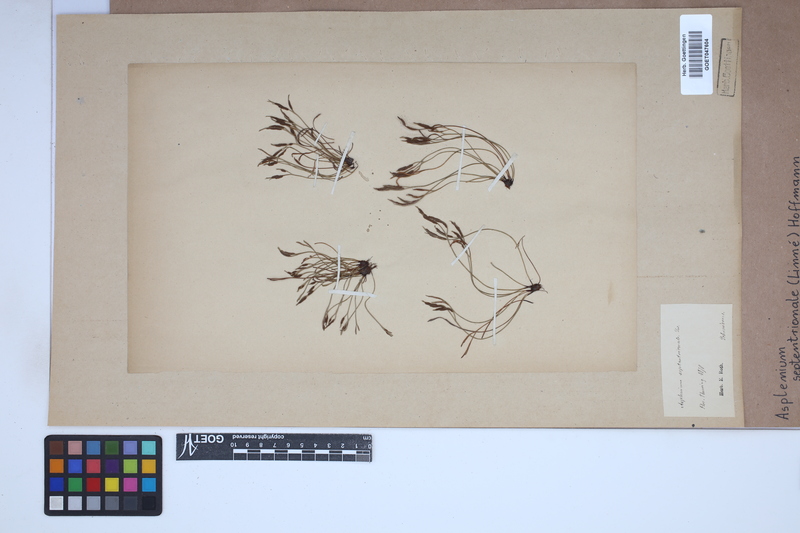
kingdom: Plantae
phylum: Tracheophyta
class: Polypodiopsida
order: Polypodiales
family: Aspleniaceae
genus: Asplenium
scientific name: Asplenium septentrionale
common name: Forked spleenwort
